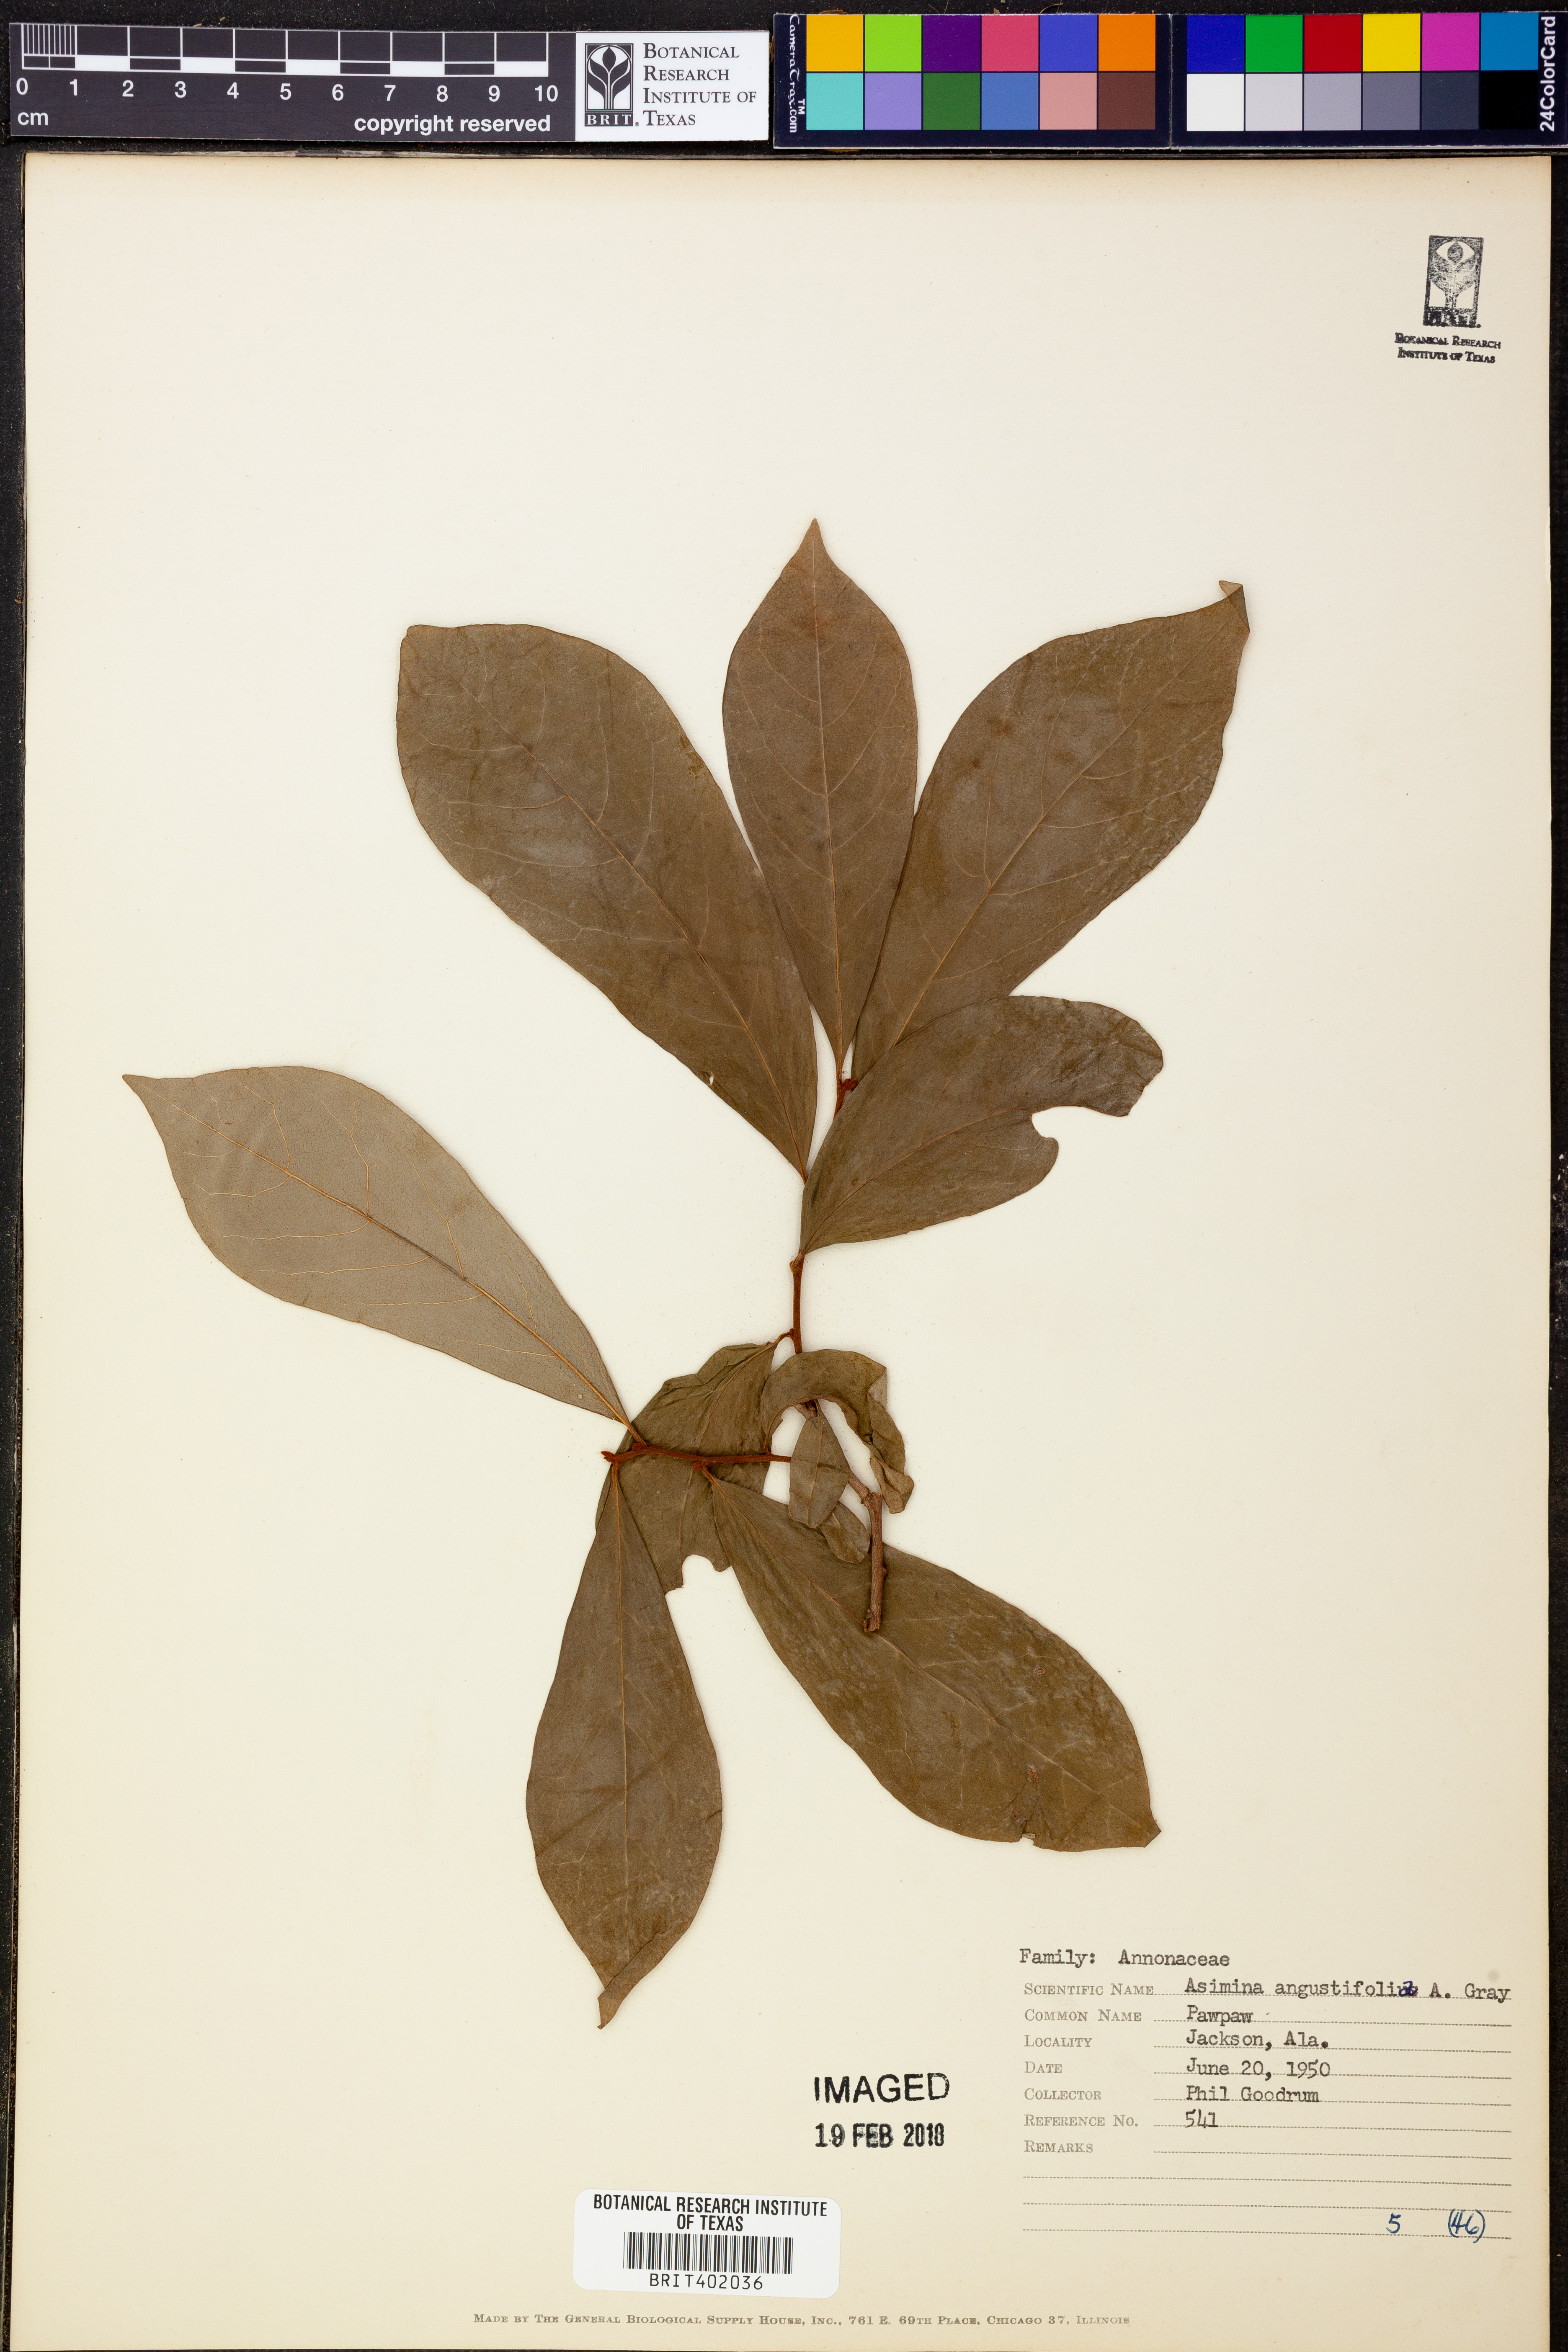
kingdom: Plantae
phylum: Tracheophyta
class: Magnoliopsida
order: Magnoliales
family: Annonaceae
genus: Asimina
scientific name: Asimina longifolia
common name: Polecatbush
